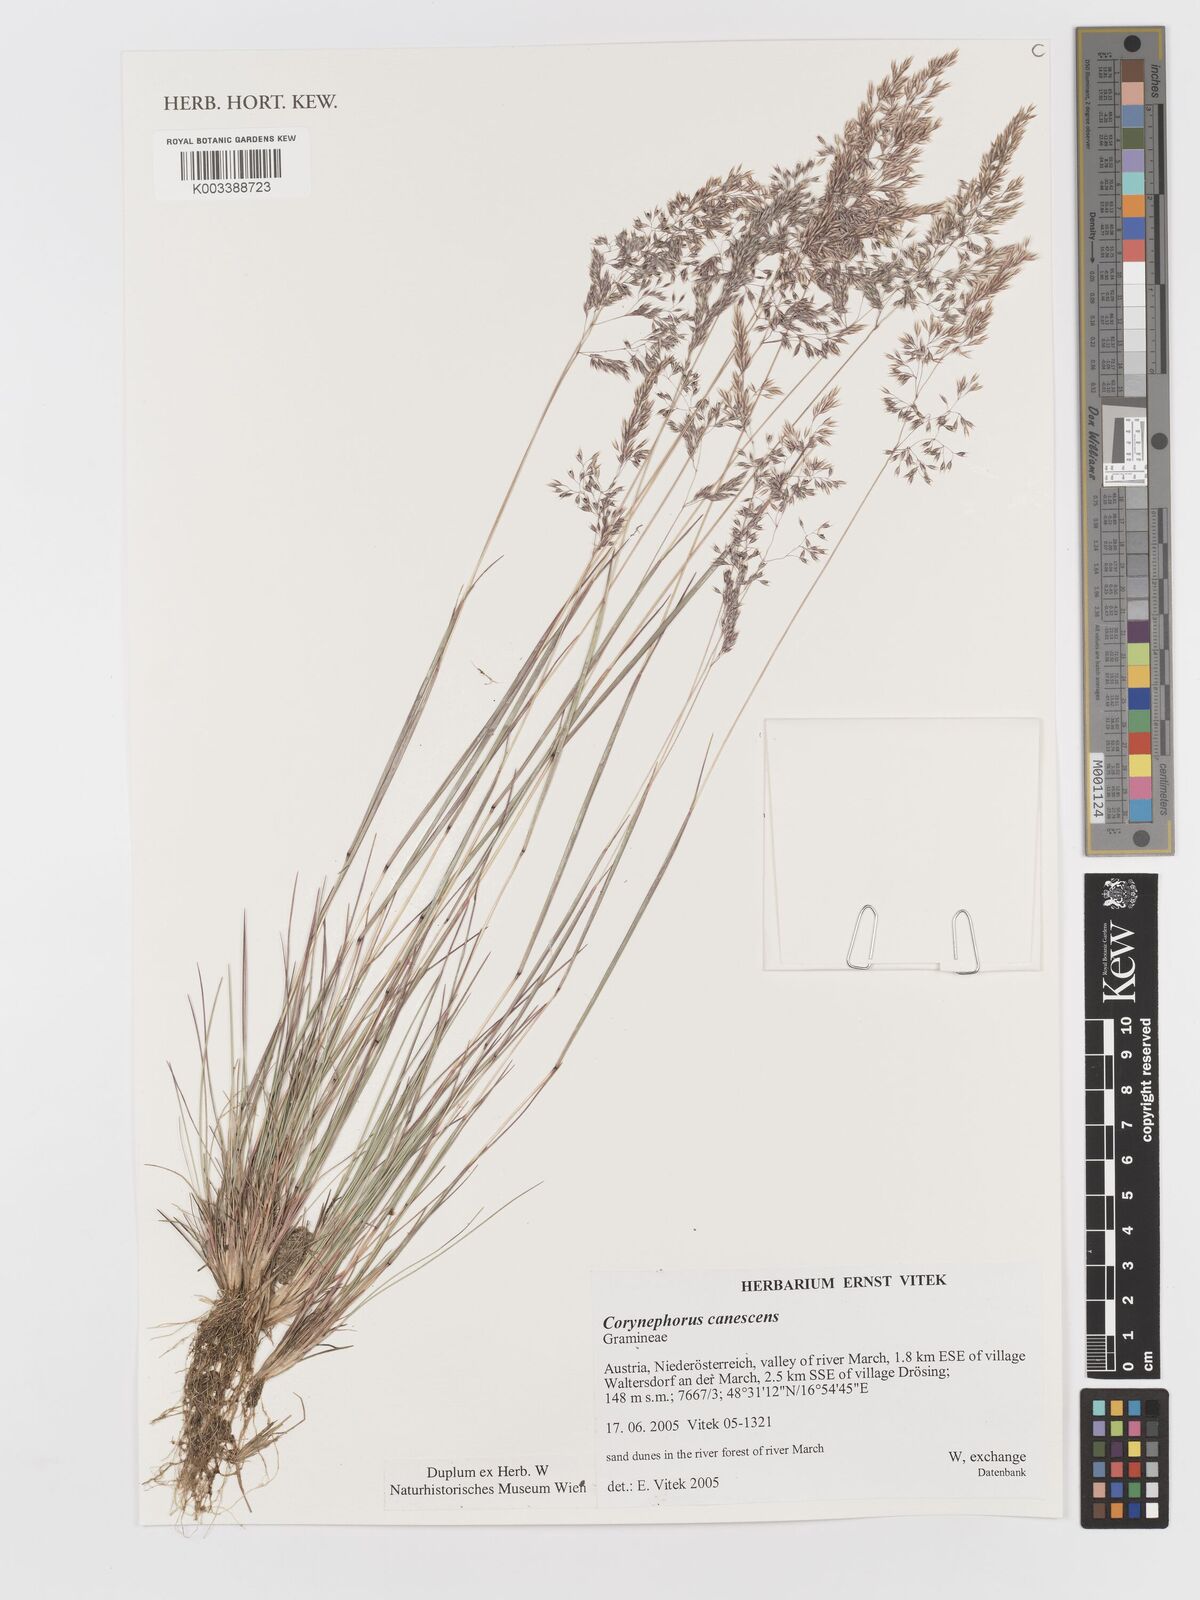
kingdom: Plantae
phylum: Tracheophyta
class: Liliopsida
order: Poales
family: Poaceae
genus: Corynephorus
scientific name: Corynephorus canescens
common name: Grey hair-grass
